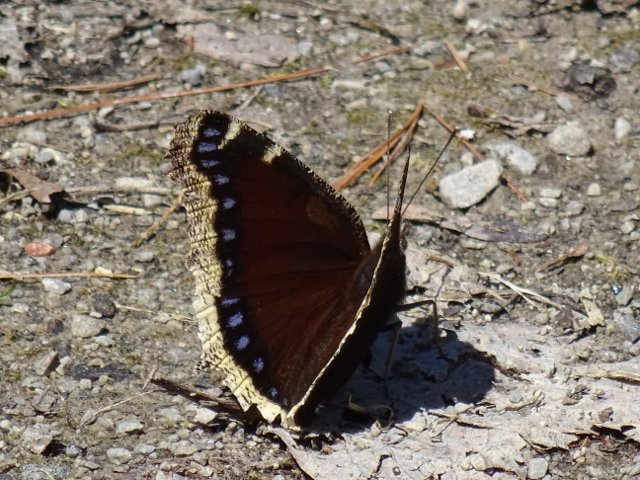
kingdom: Animalia
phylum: Arthropoda
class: Insecta
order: Lepidoptera
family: Nymphalidae
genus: Nymphalis
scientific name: Nymphalis antiopa
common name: Mourning Cloak
